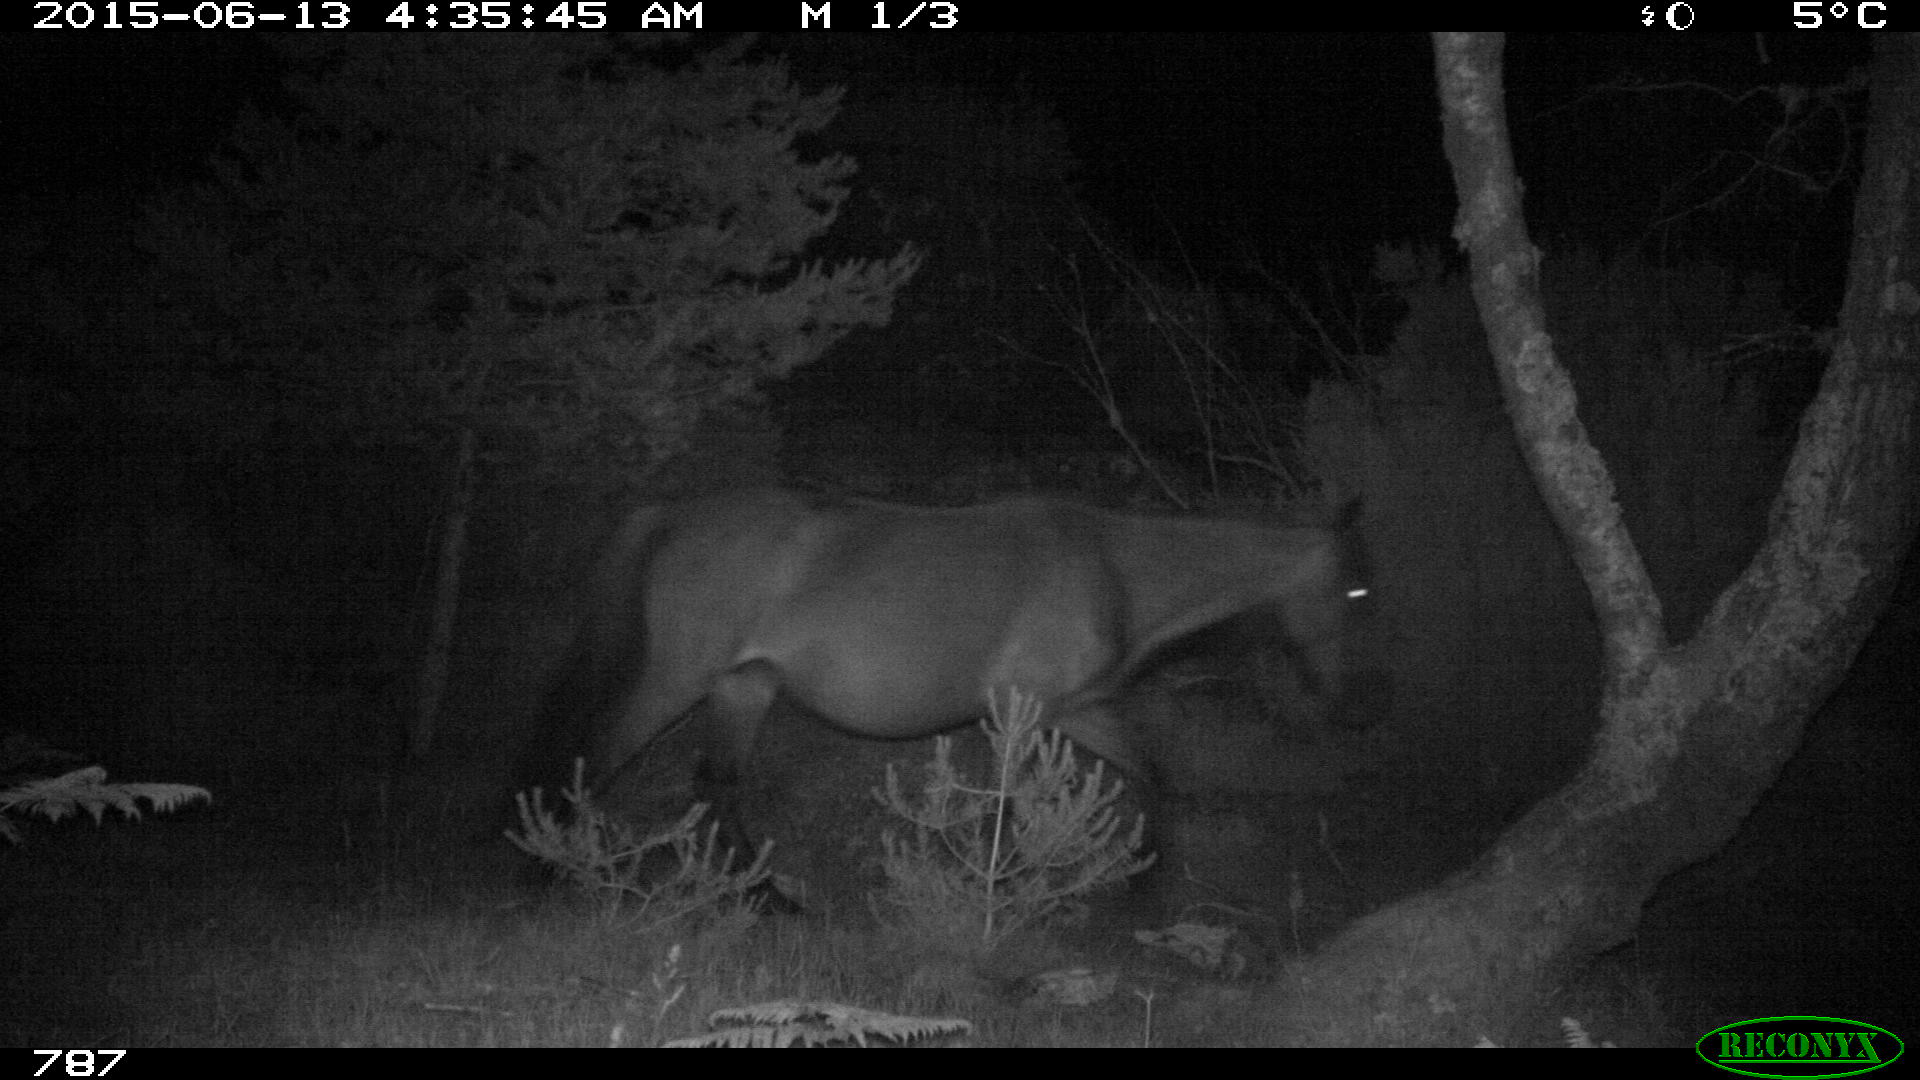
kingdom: Animalia
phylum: Chordata
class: Mammalia
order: Perissodactyla
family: Equidae
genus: Equus
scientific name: Equus caballus
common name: Horse
